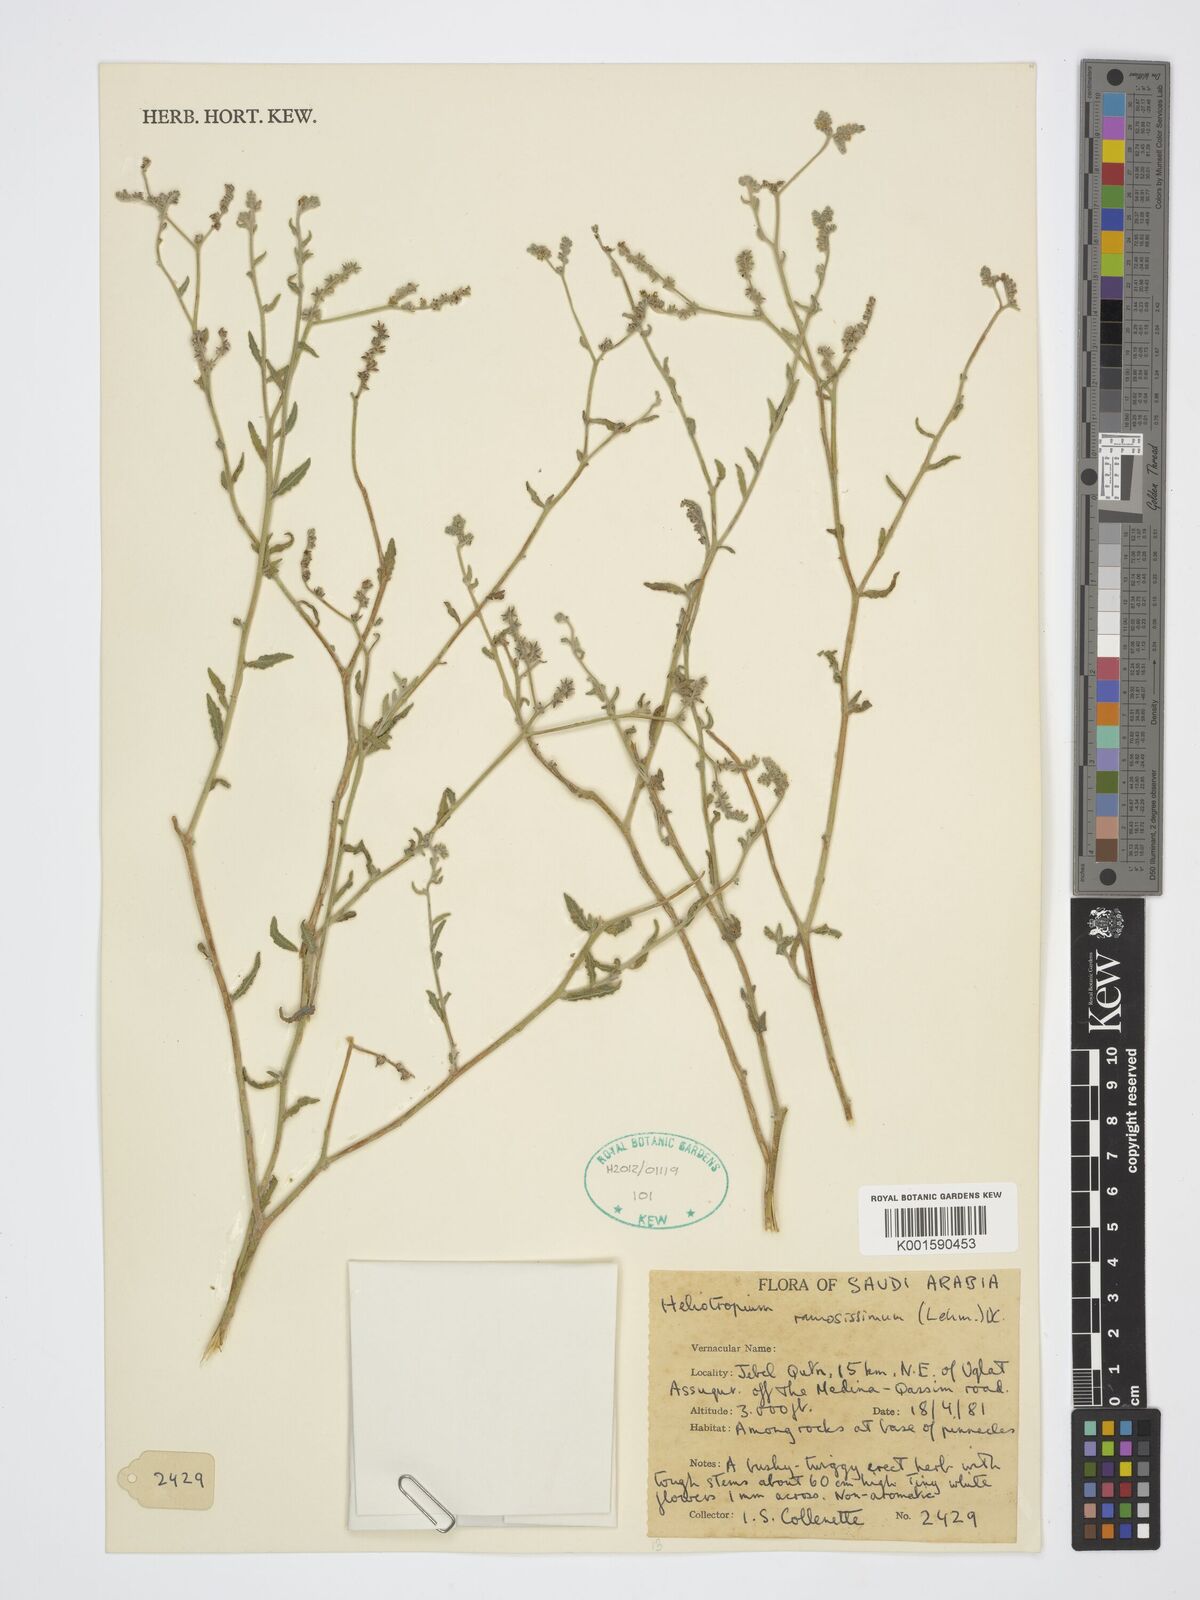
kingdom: Plantae
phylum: Tracheophyta
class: Magnoliopsida
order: Boraginales
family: Heliotropiaceae
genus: Heliotropium
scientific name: Heliotropium ramosissimum
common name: Wavy heliotrope
